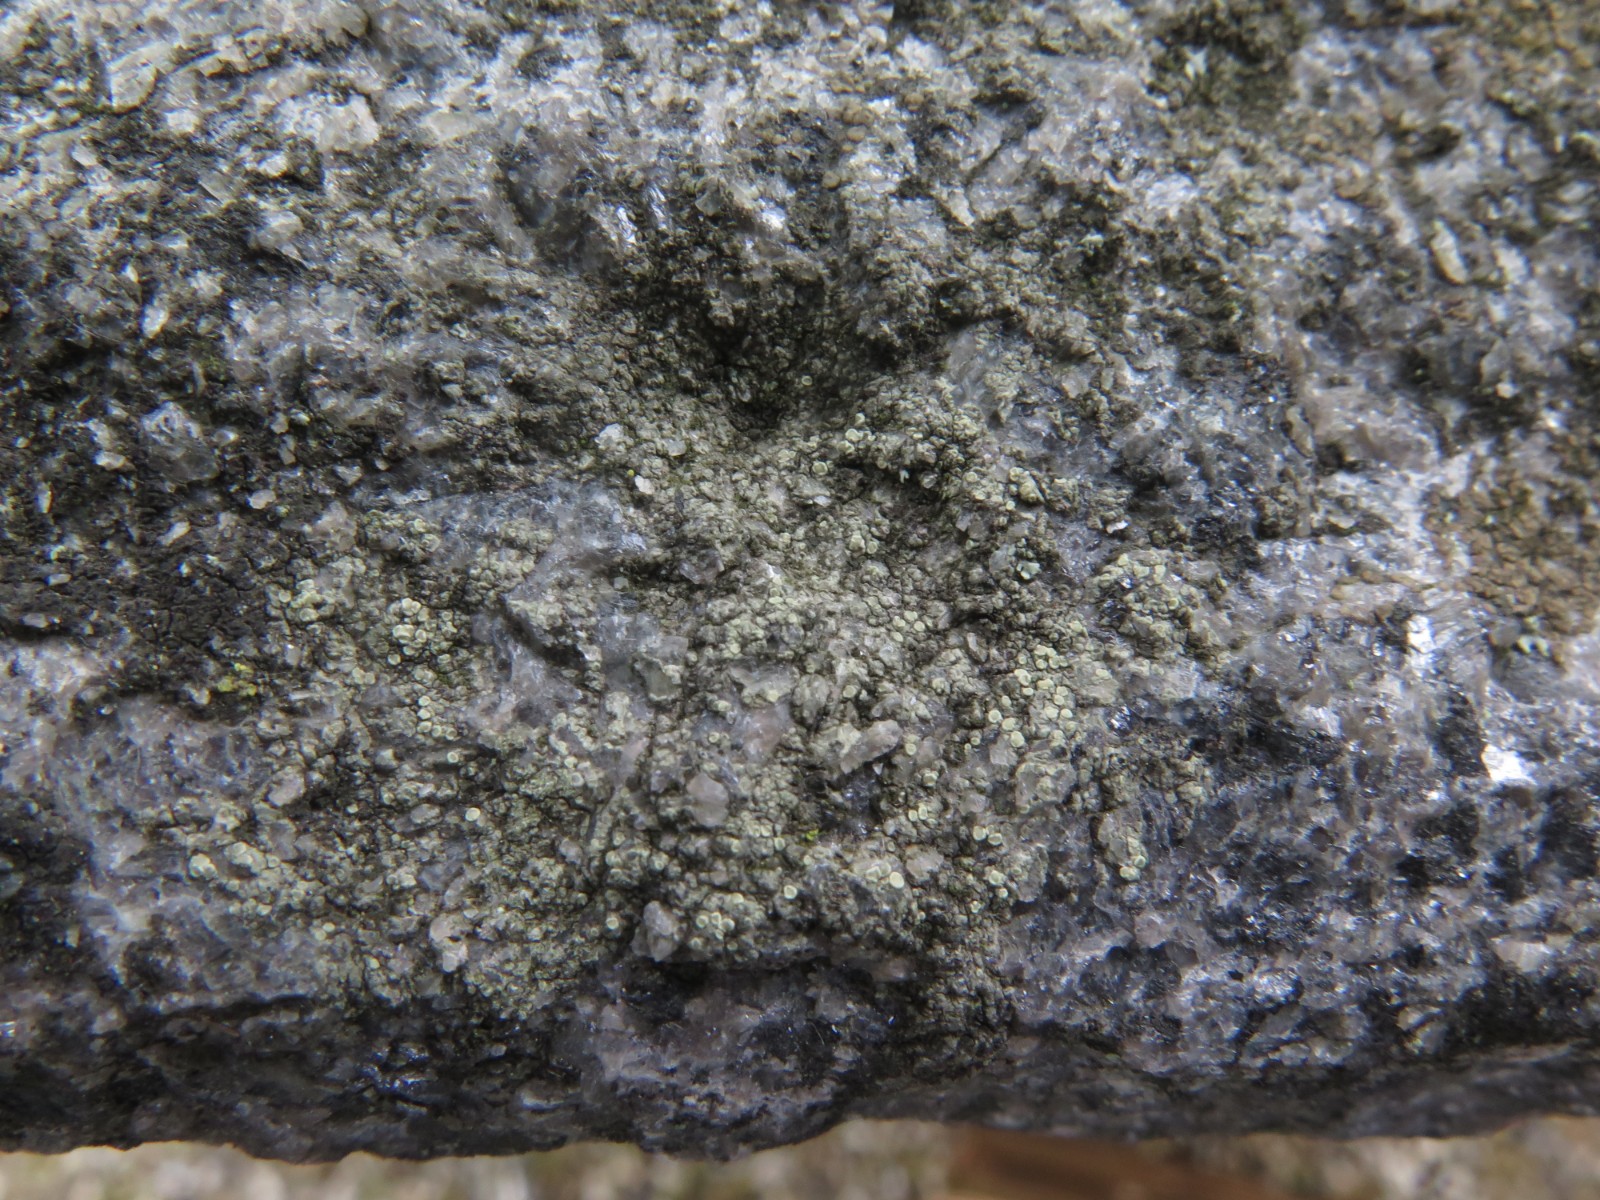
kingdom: Fungi
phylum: Ascomycota
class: Lecanoromycetes
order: Lecanorales
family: Lecanoraceae
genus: Lecanora
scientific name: Lecanora polytropa
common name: bleggrøn kantskivelav
